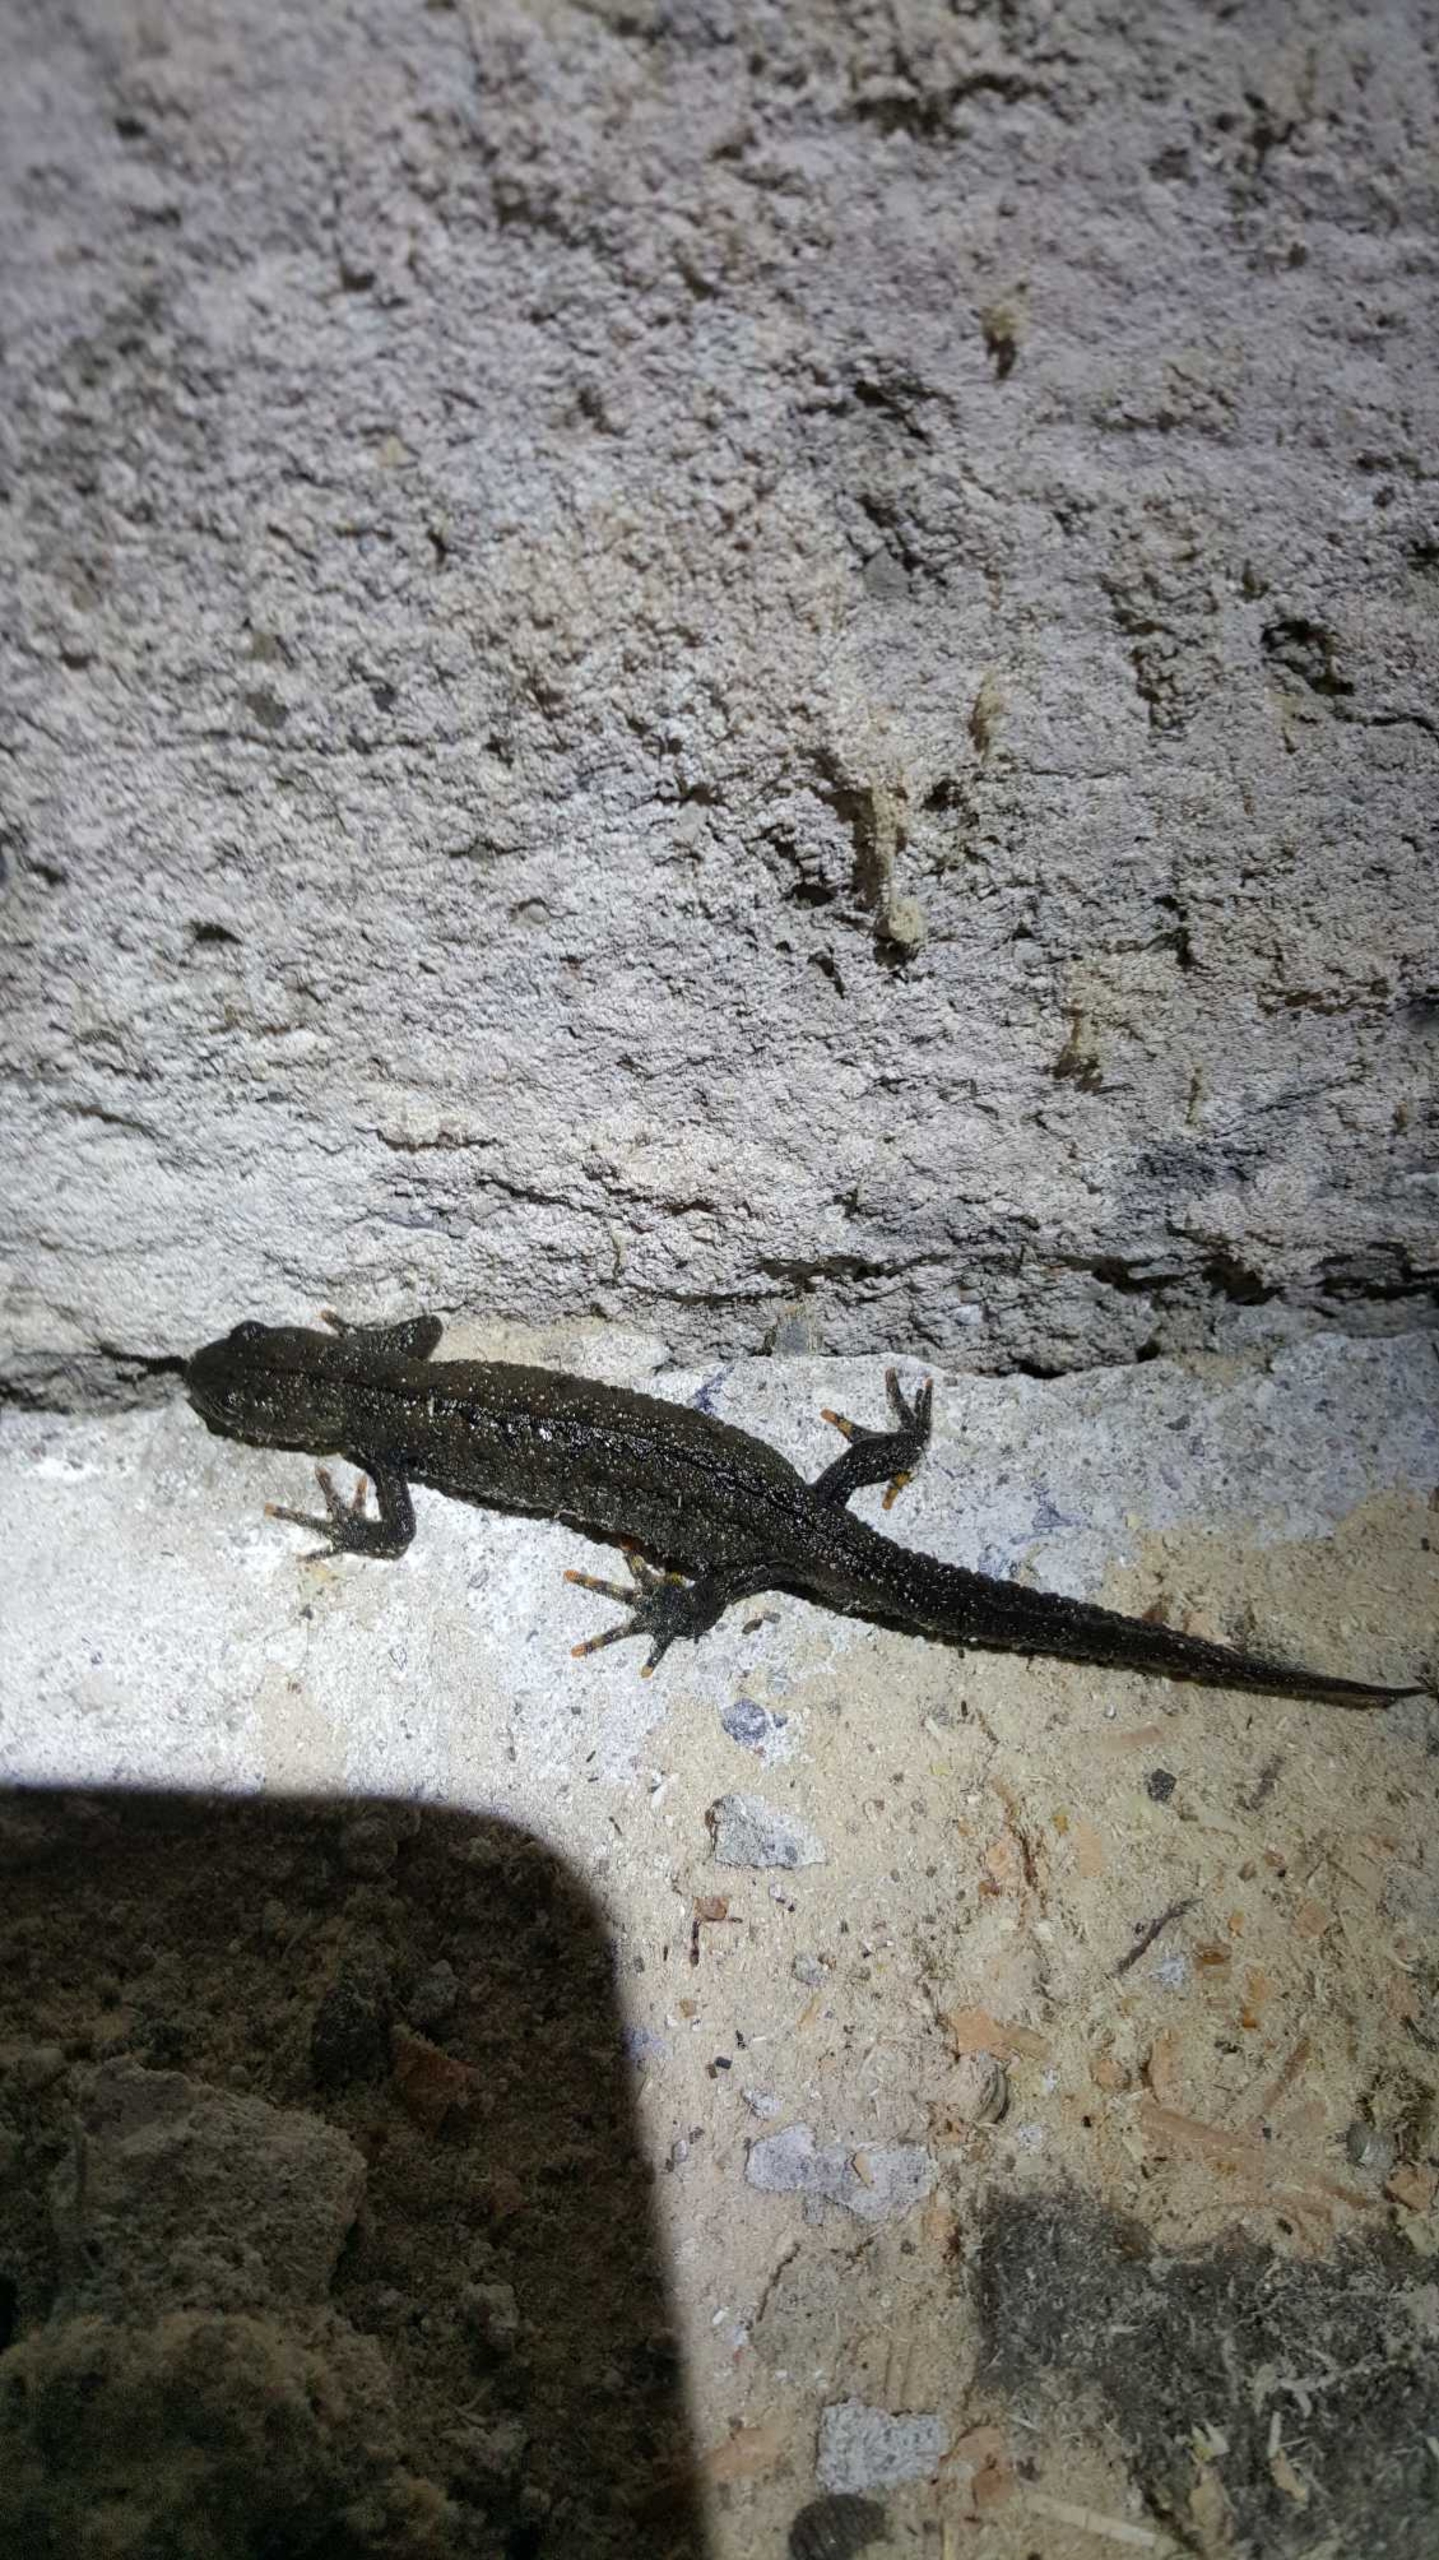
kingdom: Animalia
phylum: Chordata
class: Amphibia
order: Caudata
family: Salamandridae
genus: Triturus
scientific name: Triturus cristatus
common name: Stor vandsalamander
